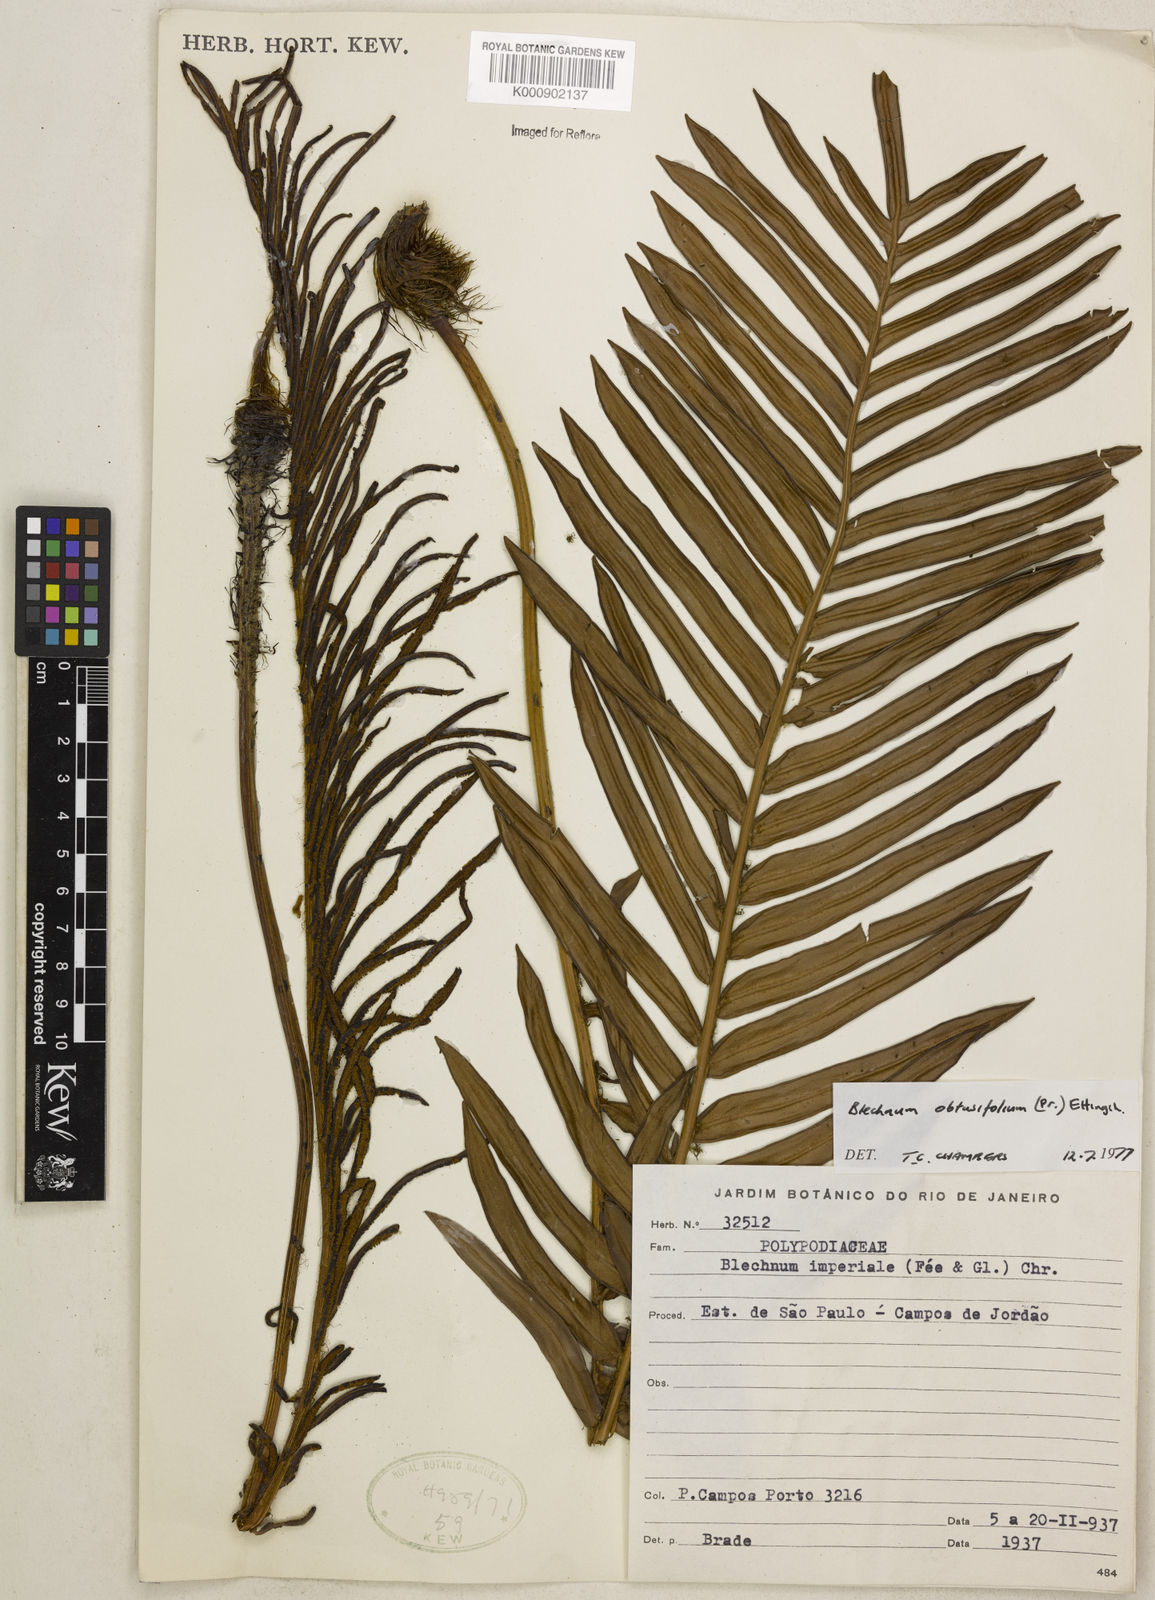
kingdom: Plantae
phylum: Tracheophyta
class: Polypodiopsida
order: Polypodiales
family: Blechnaceae
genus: Lomariocycas
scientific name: Lomariocycas obtusifolia
